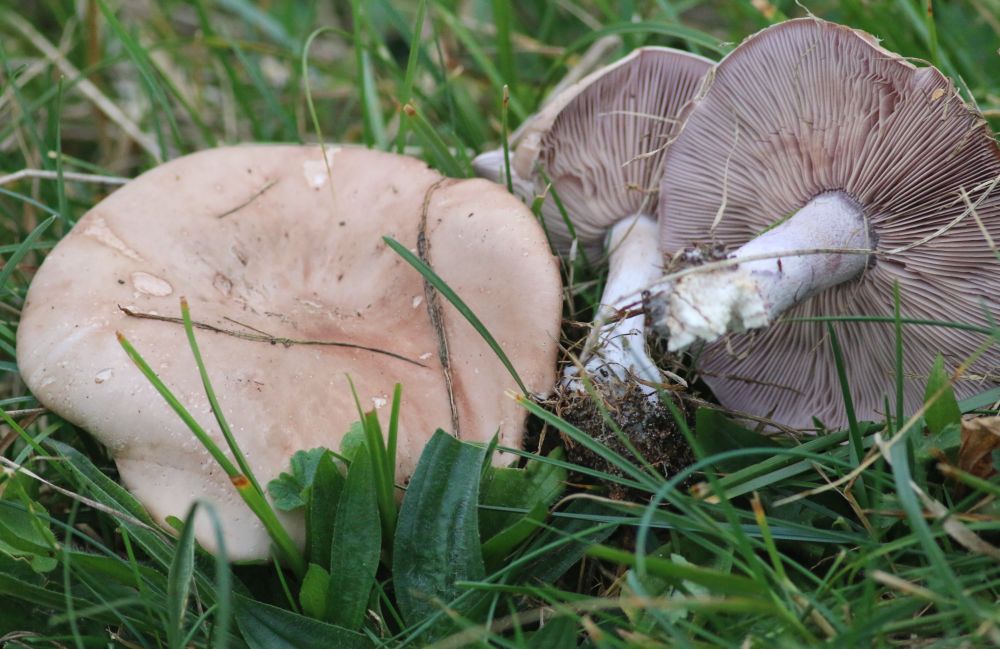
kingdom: Fungi
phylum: Basidiomycota
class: Agaricomycetes
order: Agaricales
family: Tricholomataceae
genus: Lepista
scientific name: Lepista personata
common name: bleg hekseringshat
